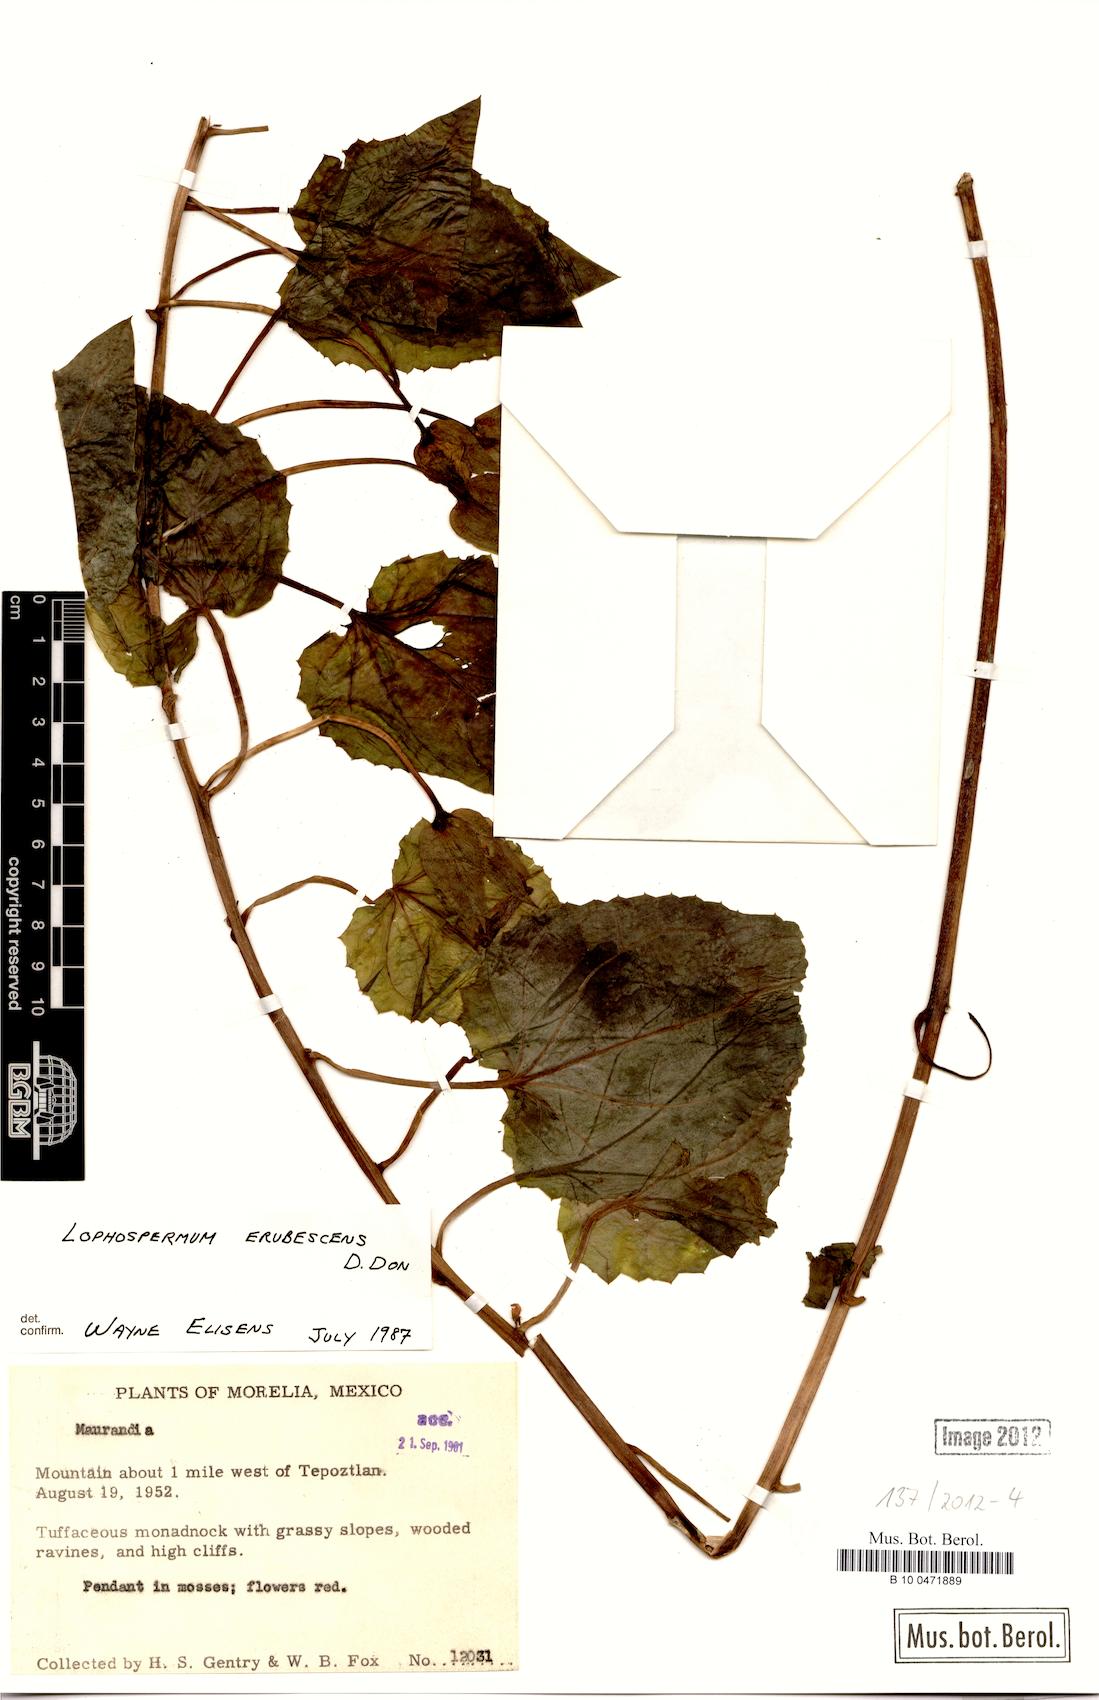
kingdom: Plantae
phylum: Tracheophyta
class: Magnoliopsida
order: Lamiales
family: Plantaginaceae
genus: Lophospermum
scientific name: Lophospermum erubescens
